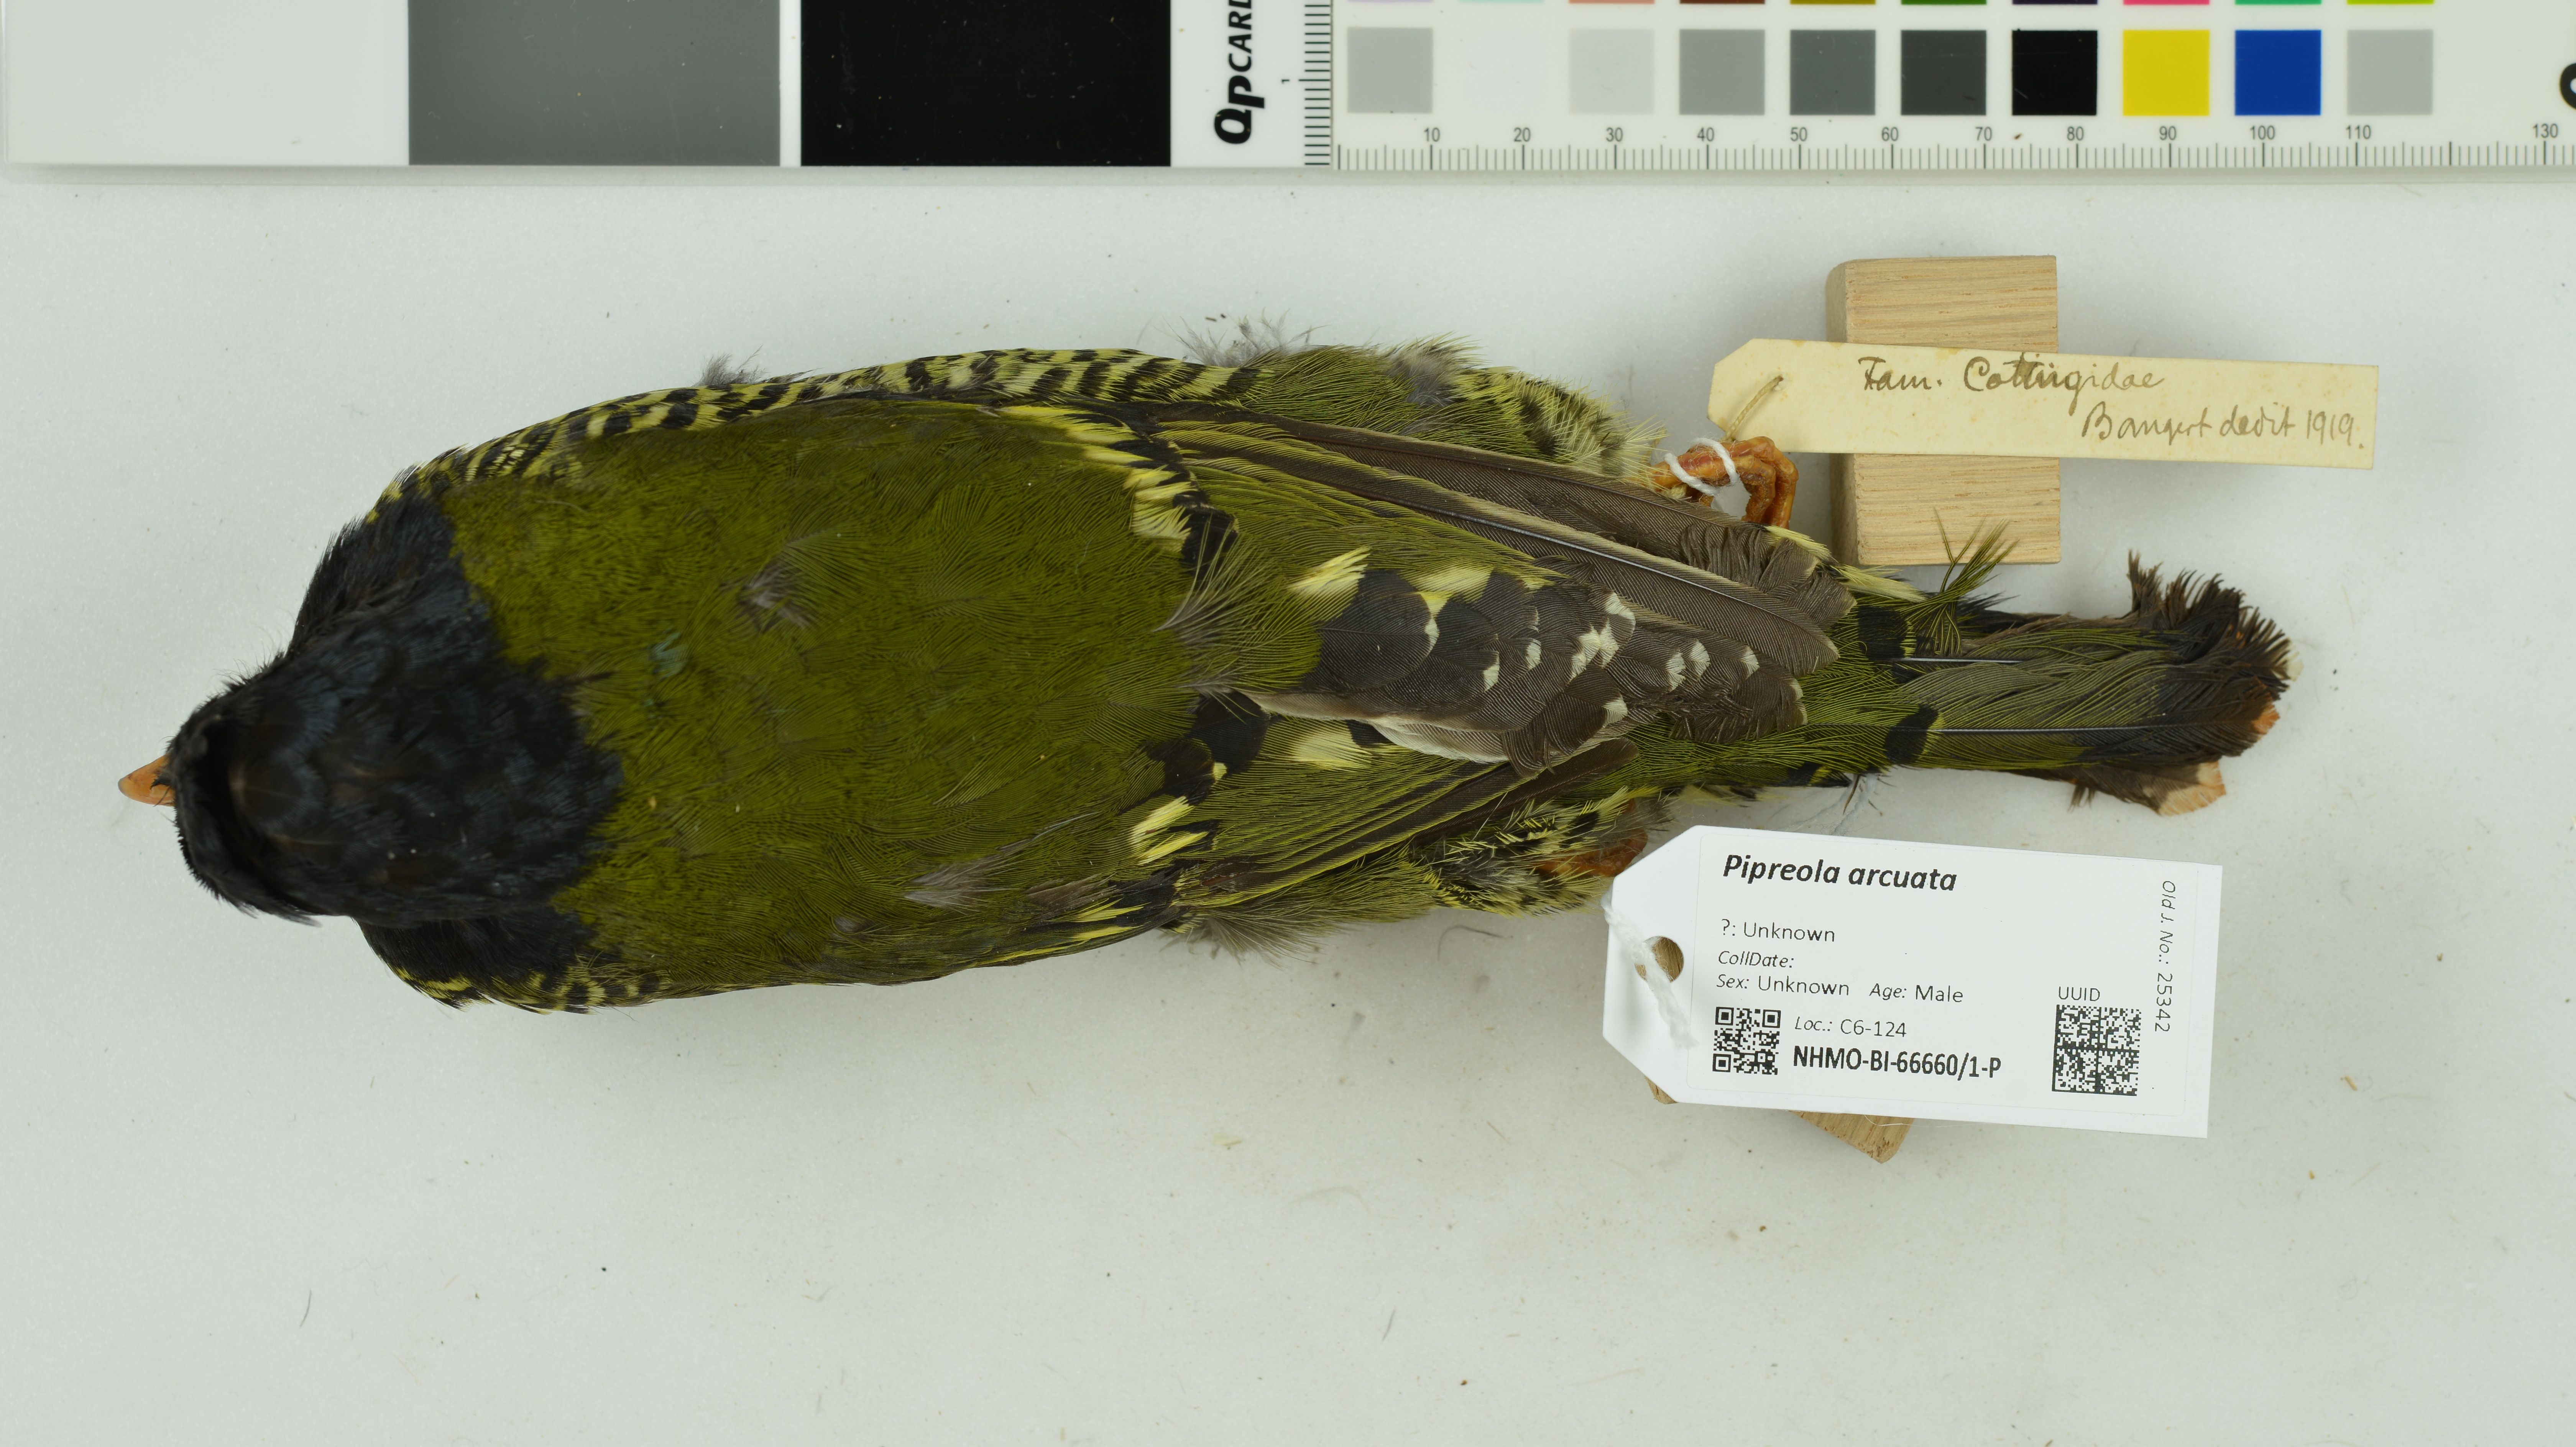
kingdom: Animalia
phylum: Chordata
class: Aves
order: Passeriformes
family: Cotingidae
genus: Pipreola
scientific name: Pipreola arcuata
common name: Barred fruiteater
